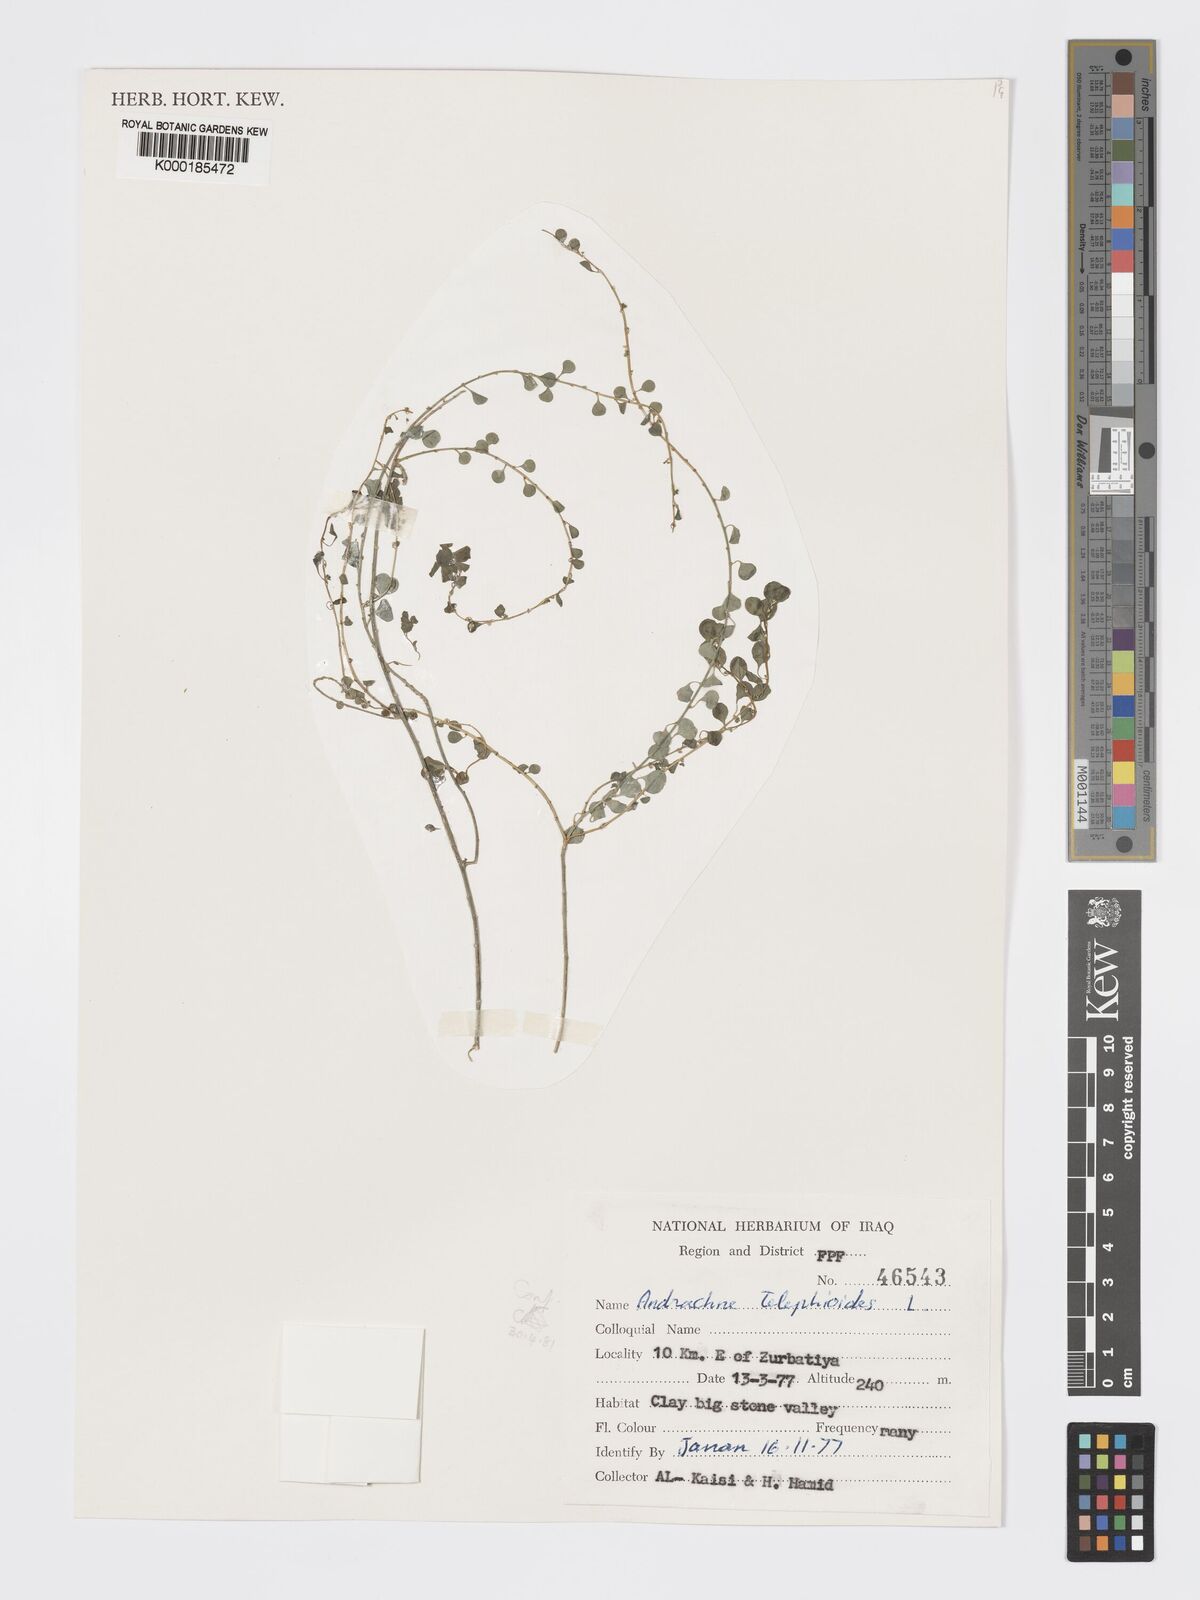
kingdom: Plantae
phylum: Tracheophyta
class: Magnoliopsida
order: Malpighiales
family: Phyllanthaceae
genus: Andrachne
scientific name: Andrachne telephioides
